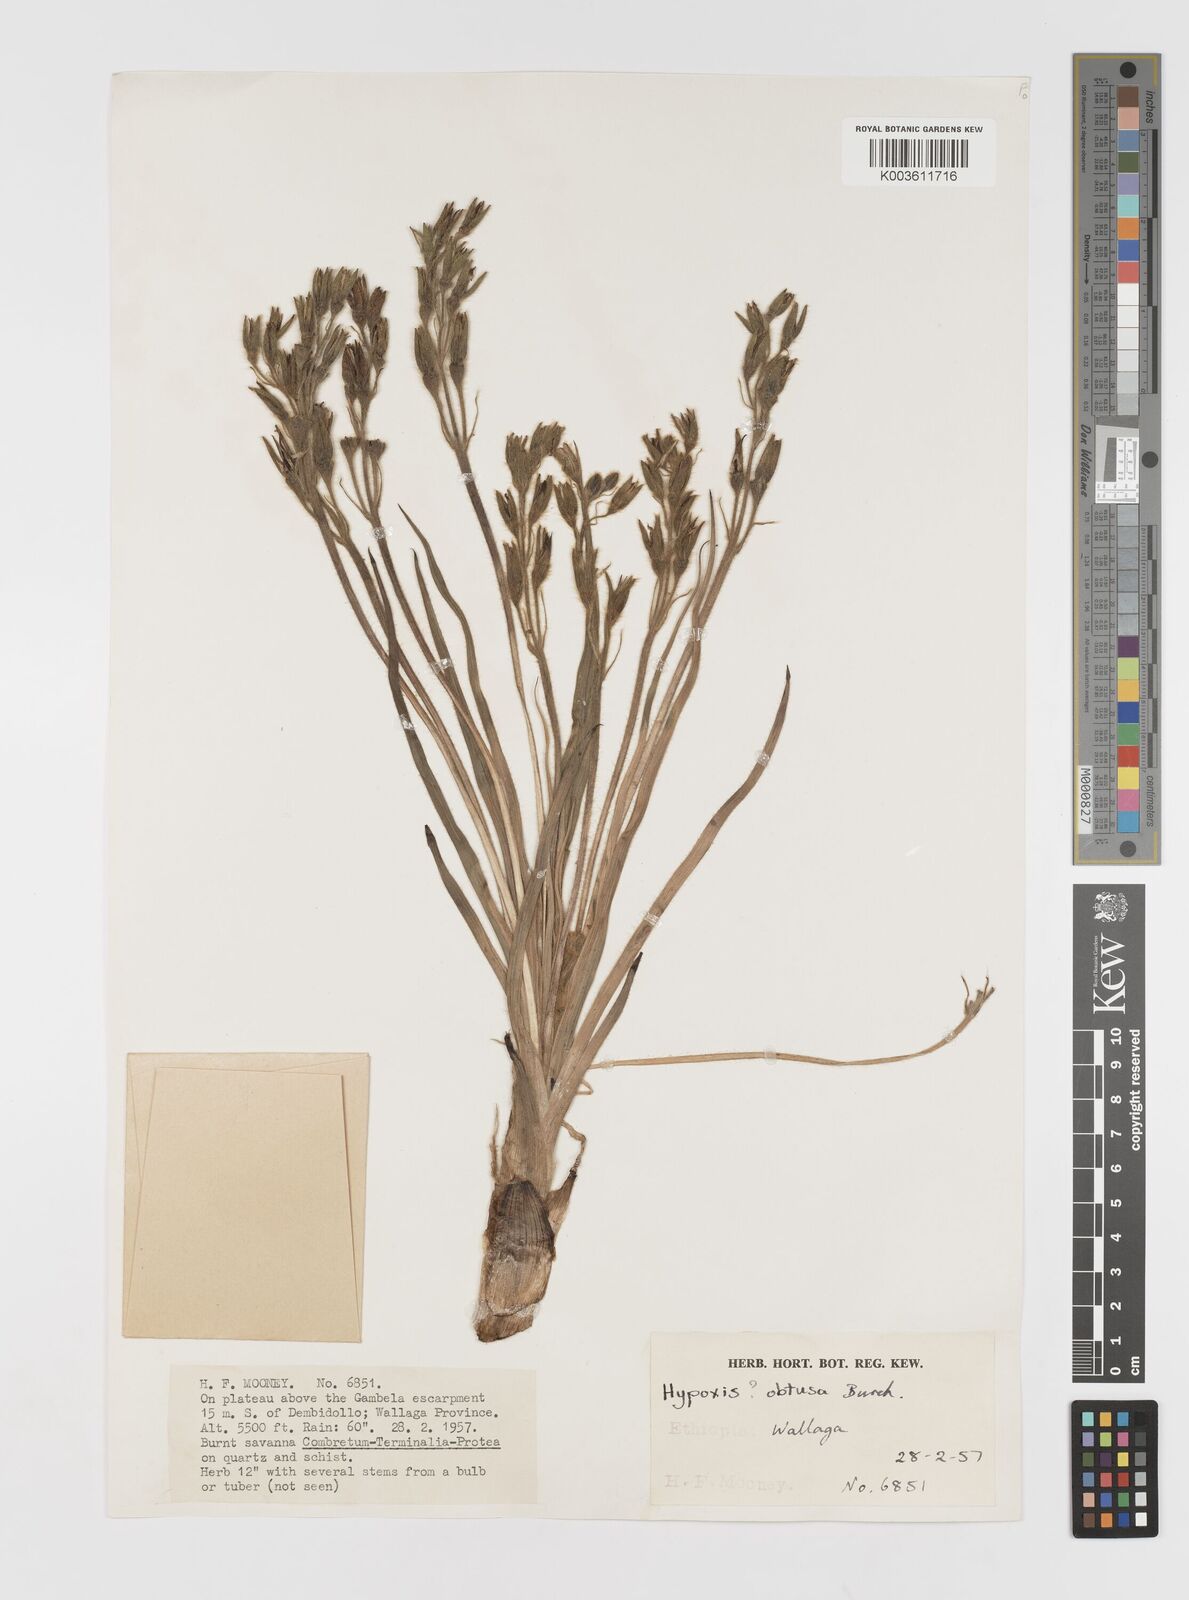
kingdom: Plantae
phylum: Tracheophyta
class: Liliopsida
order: Asparagales
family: Hypoxidaceae
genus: Hypoxis
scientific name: Hypoxis fischeri
